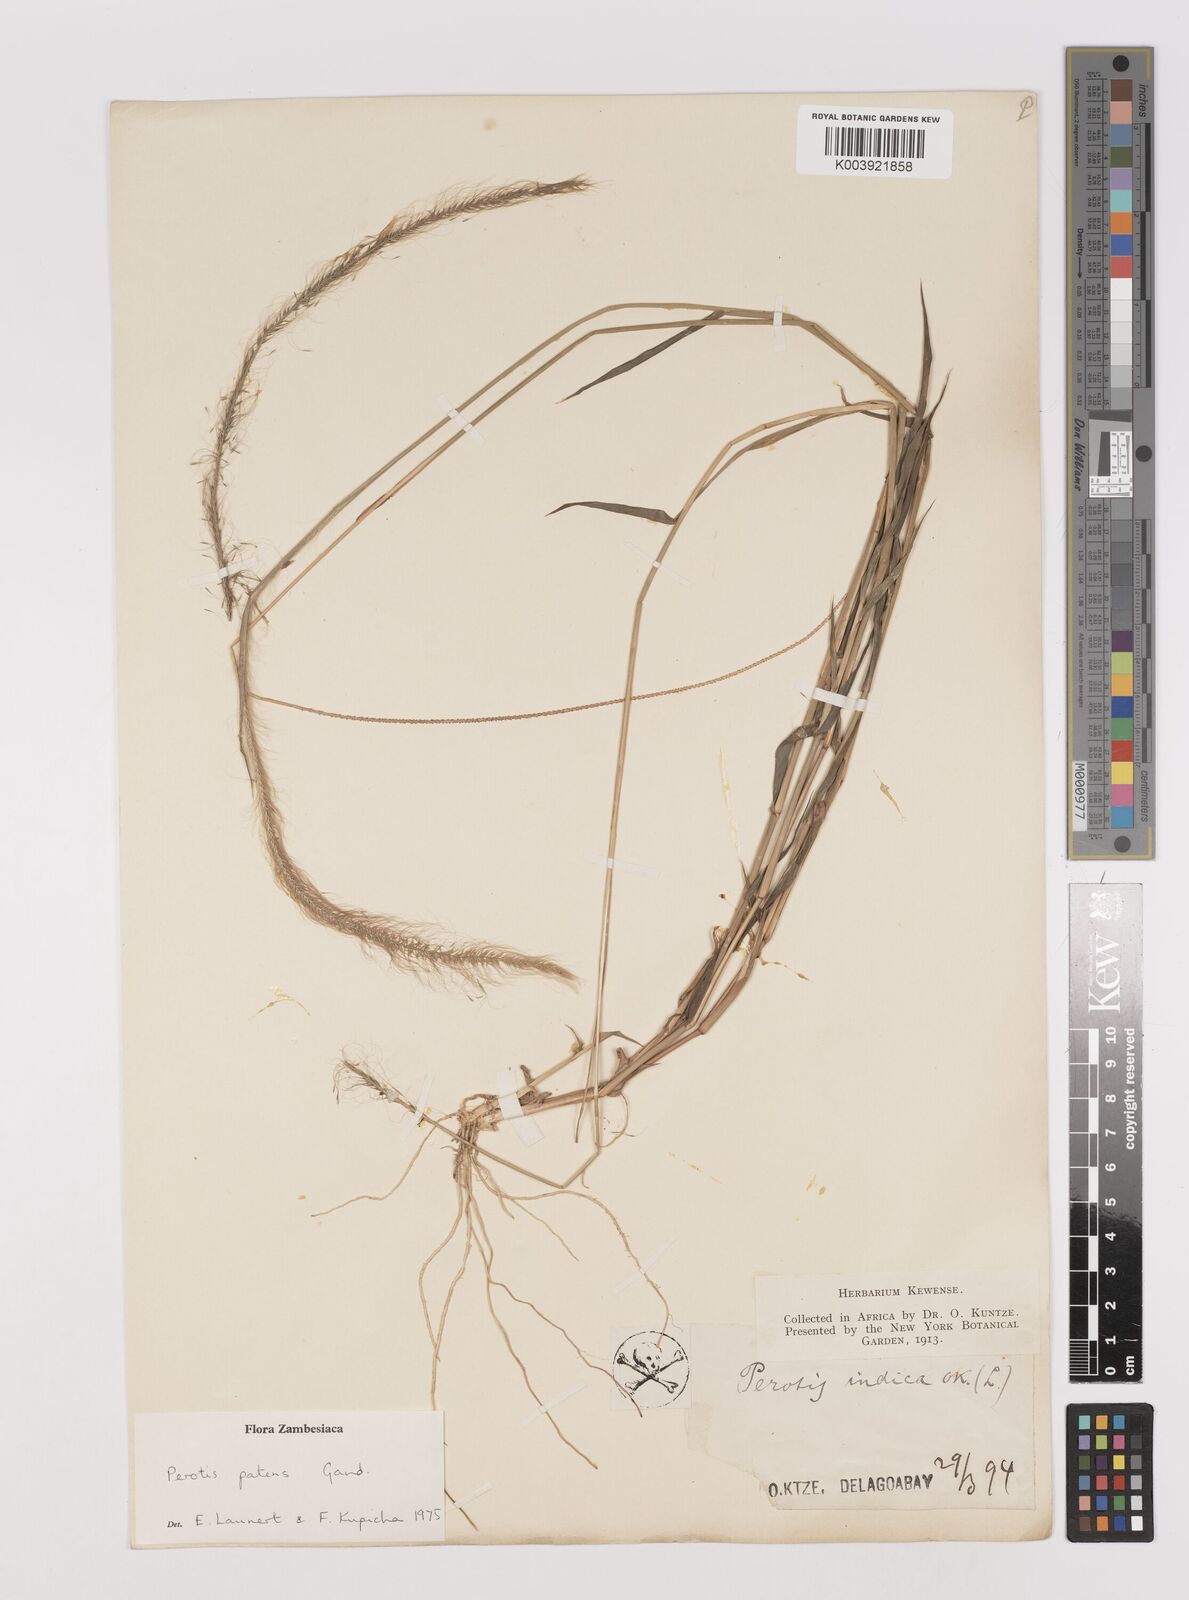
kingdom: Plantae
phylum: Tracheophyta
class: Liliopsida
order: Poales
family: Poaceae
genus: Perotis
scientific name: Perotis patens
